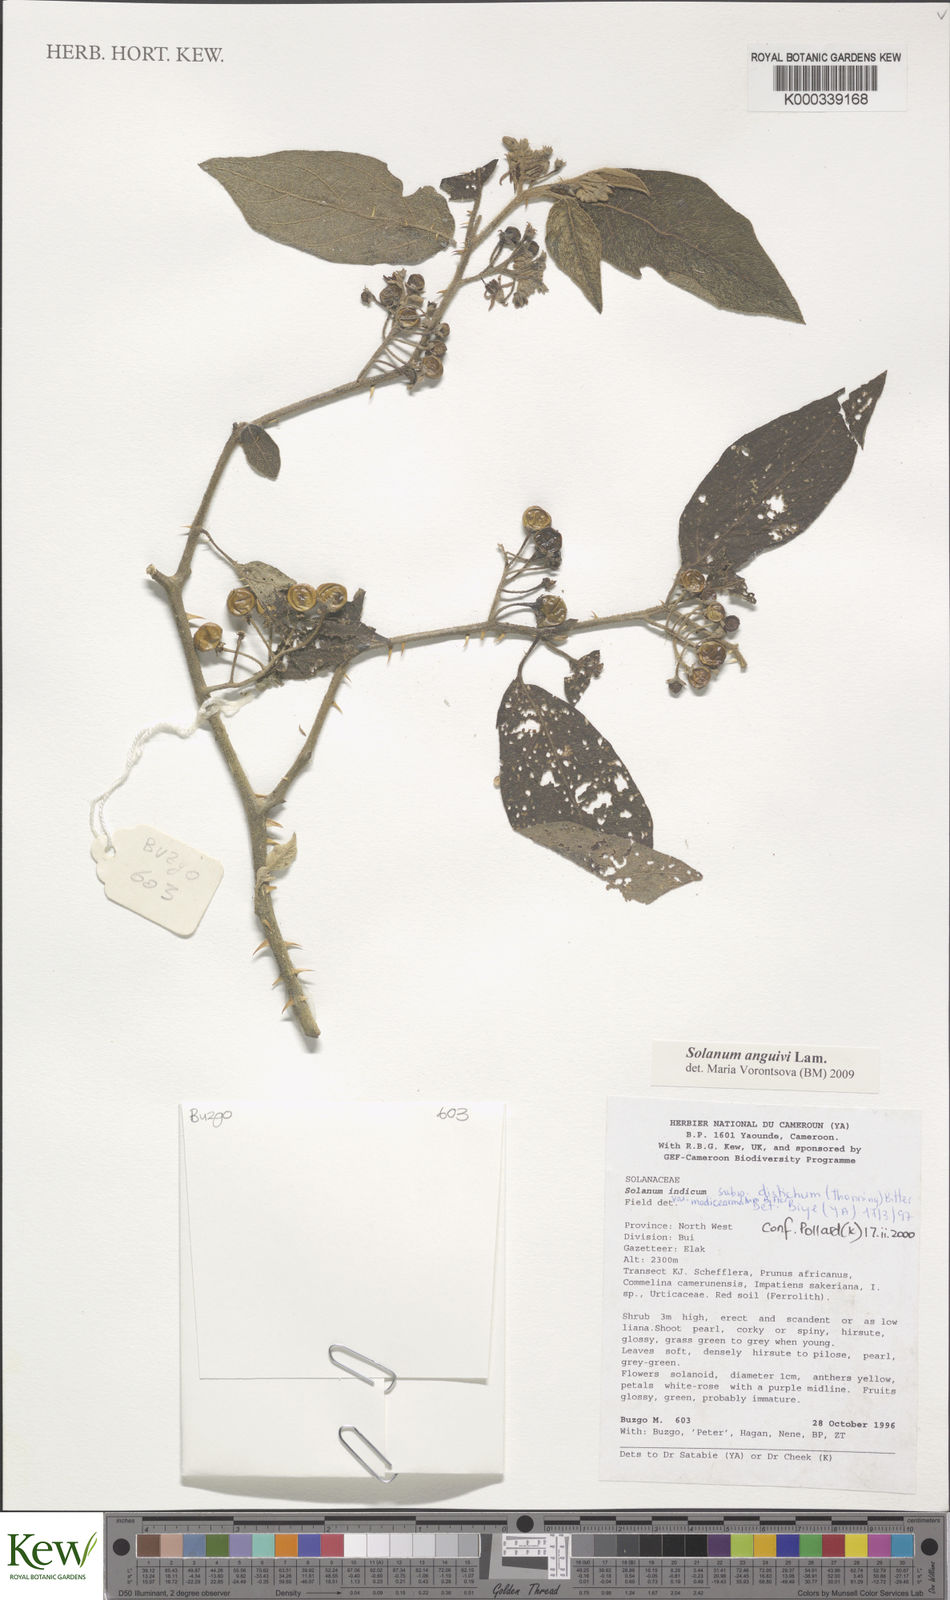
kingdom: Plantae
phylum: Tracheophyta
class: Magnoliopsida
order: Solanales
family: Solanaceae
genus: Solanum
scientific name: Solanum violaceum
